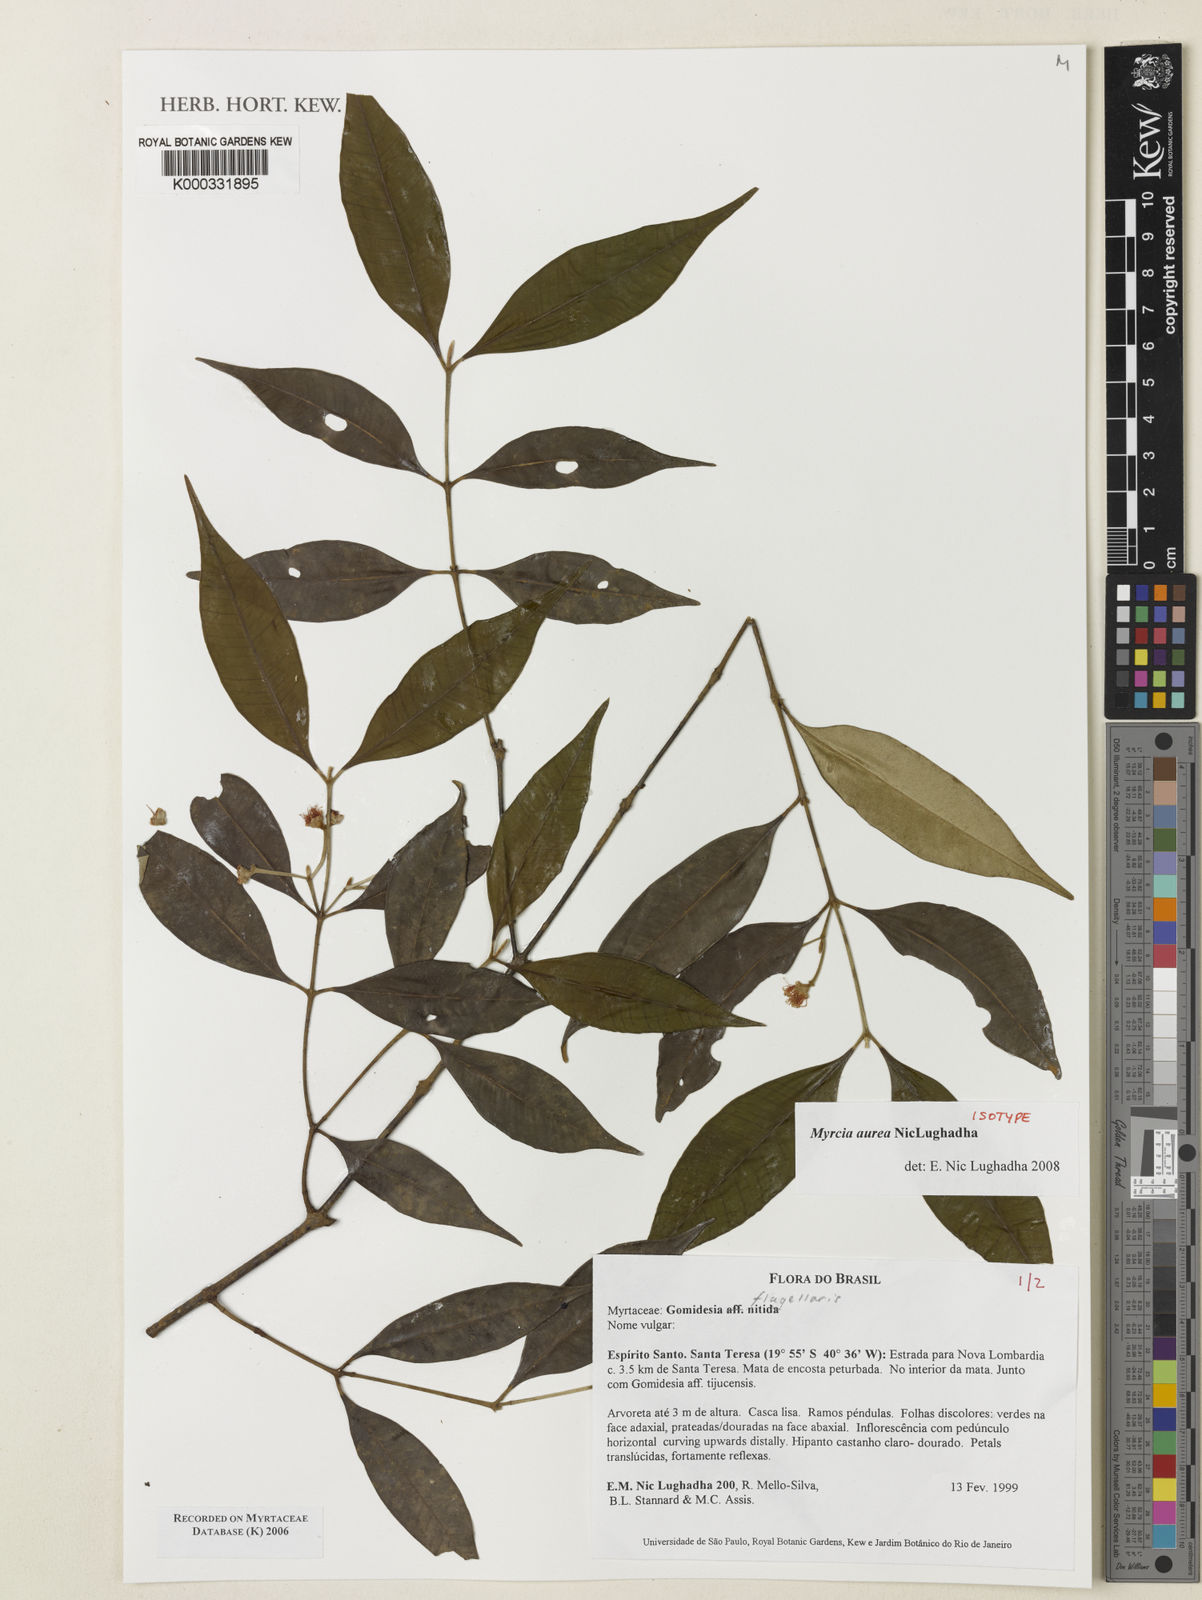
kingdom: Plantae
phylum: Tracheophyta
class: Magnoliopsida
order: Myrtales
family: Myrtaceae
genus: Myrcia
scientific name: Myrcia flagellaris
